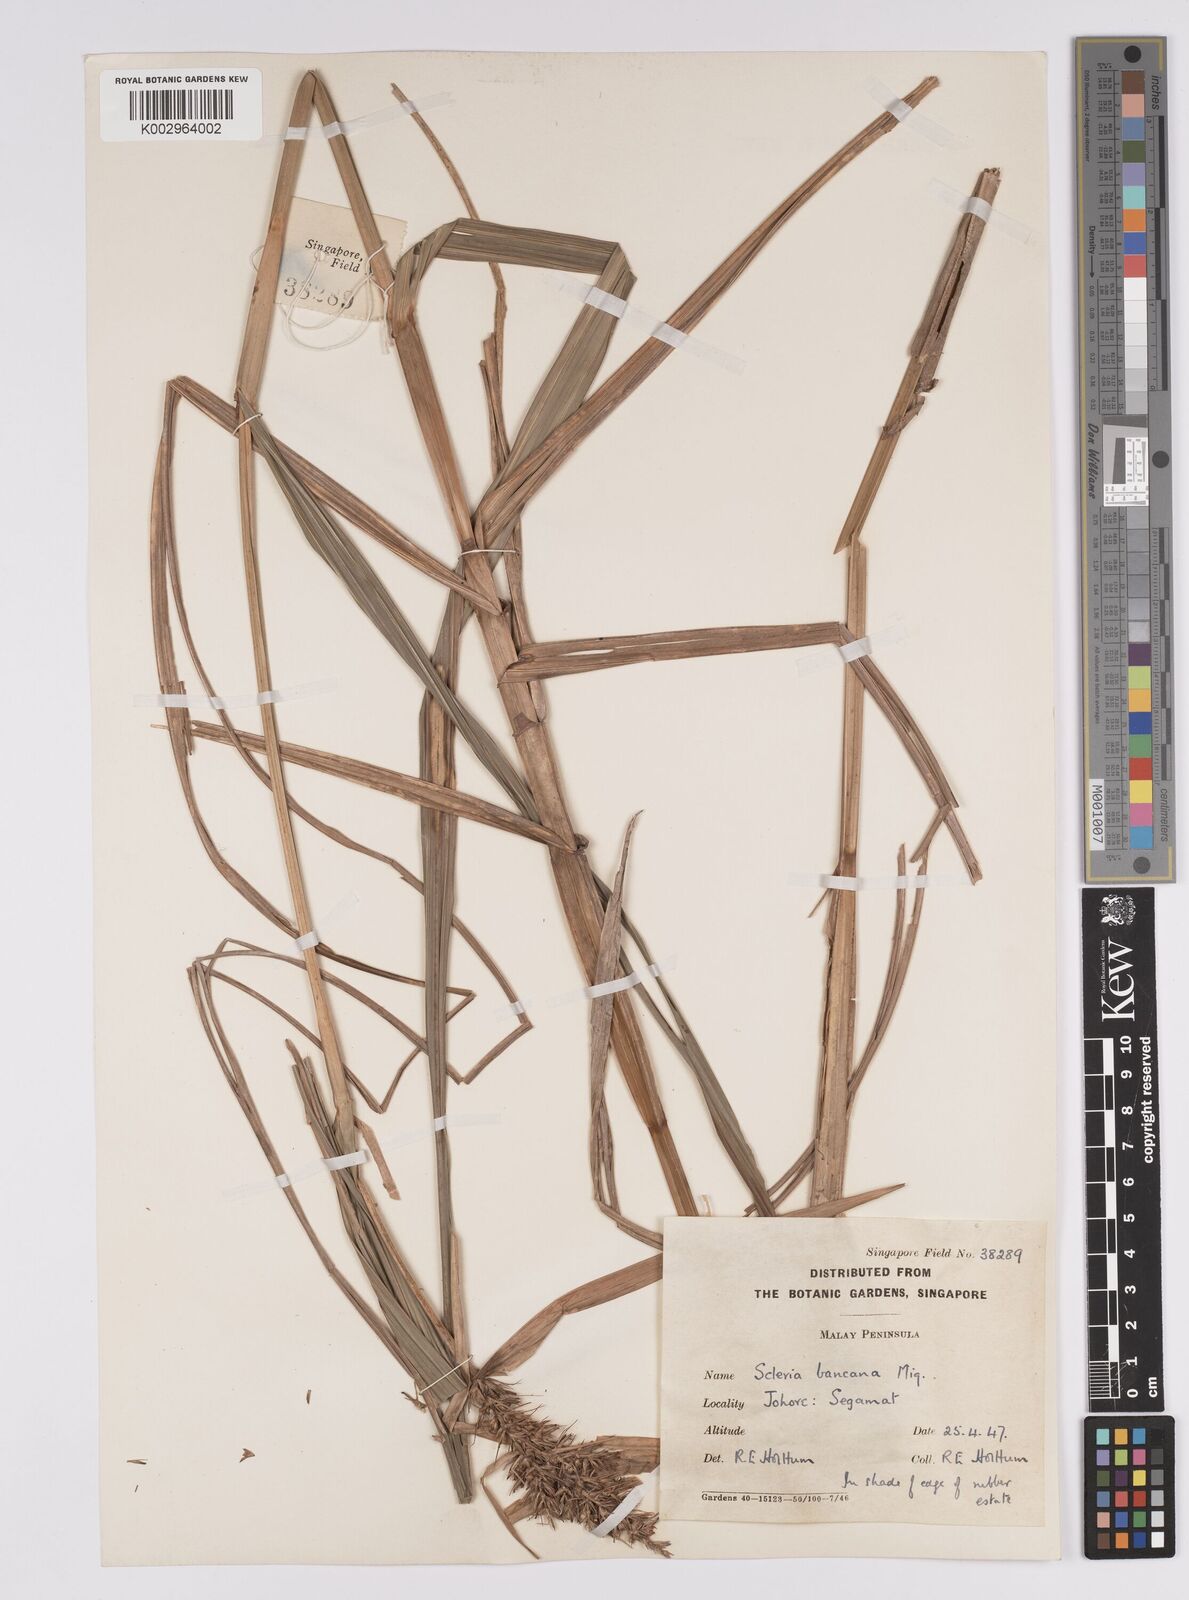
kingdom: Plantae
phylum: Tracheophyta
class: Liliopsida
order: Poales
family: Cyperaceae
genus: Scleria
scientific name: Scleria ciliaris
